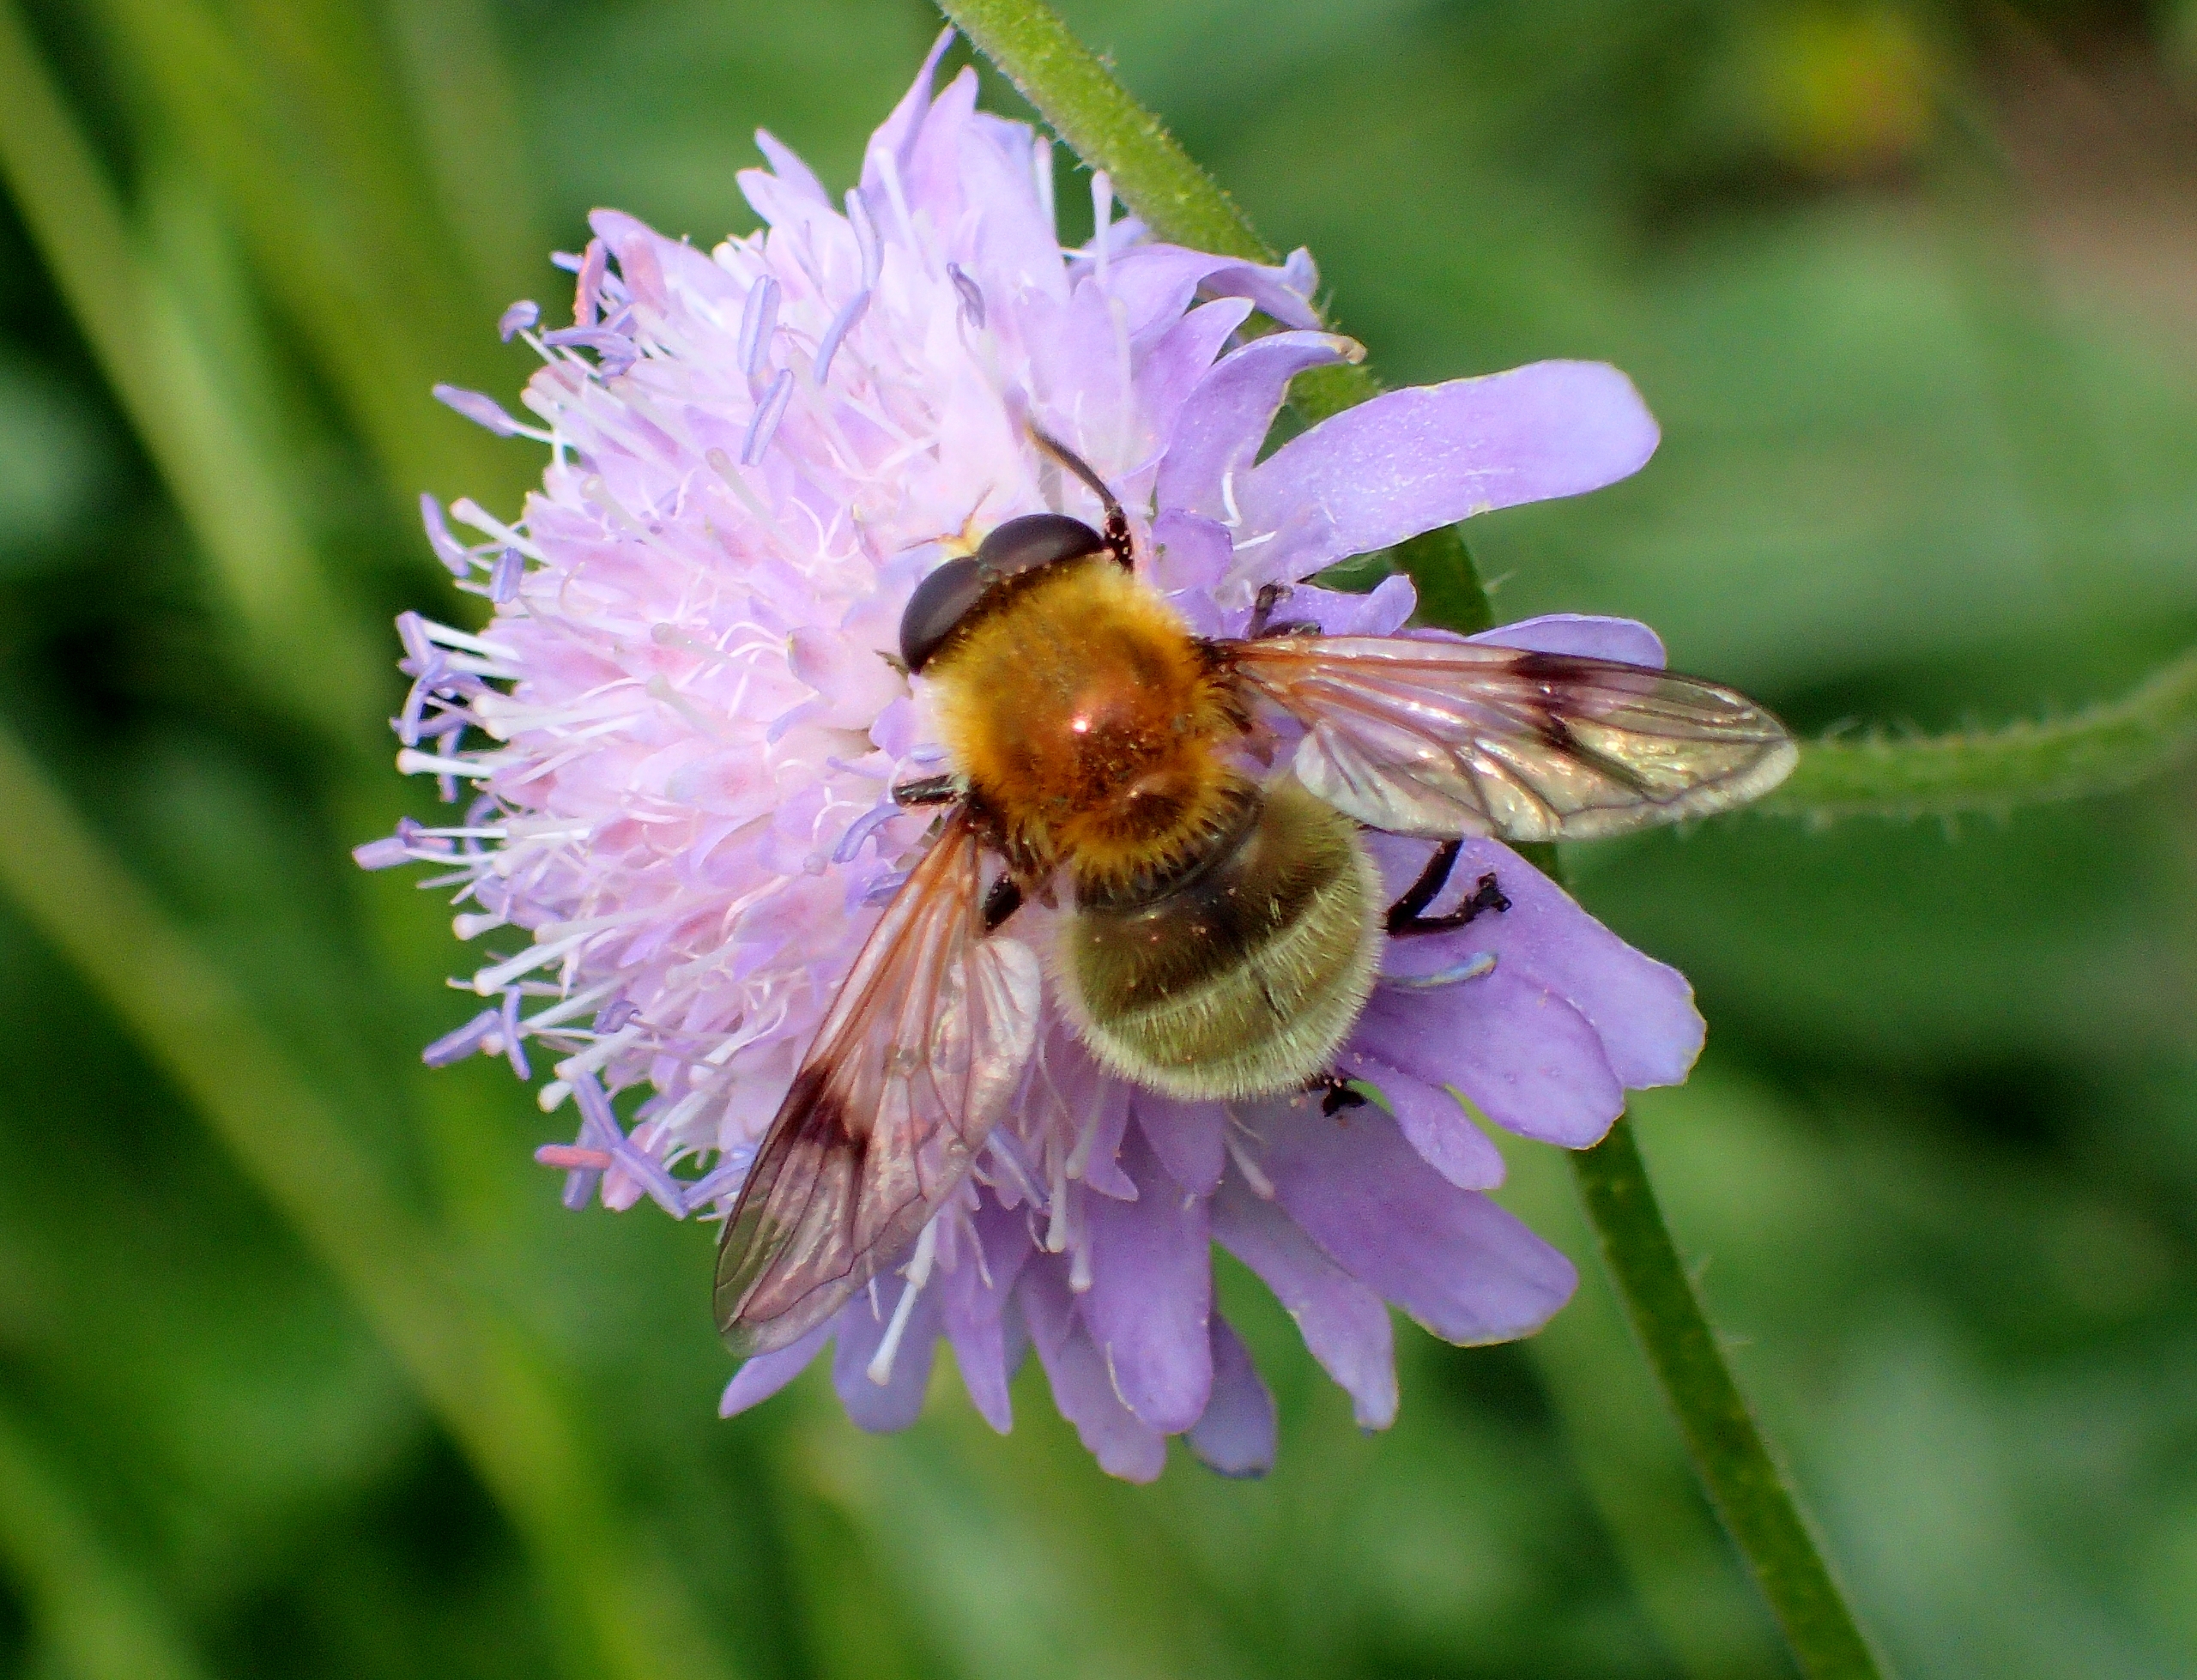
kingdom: Animalia
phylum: Arthropoda
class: Insecta
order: Diptera
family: Syrphidae
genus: Sericomyia
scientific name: Sericomyia superbiens
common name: Brun bjørnesvirreflue
